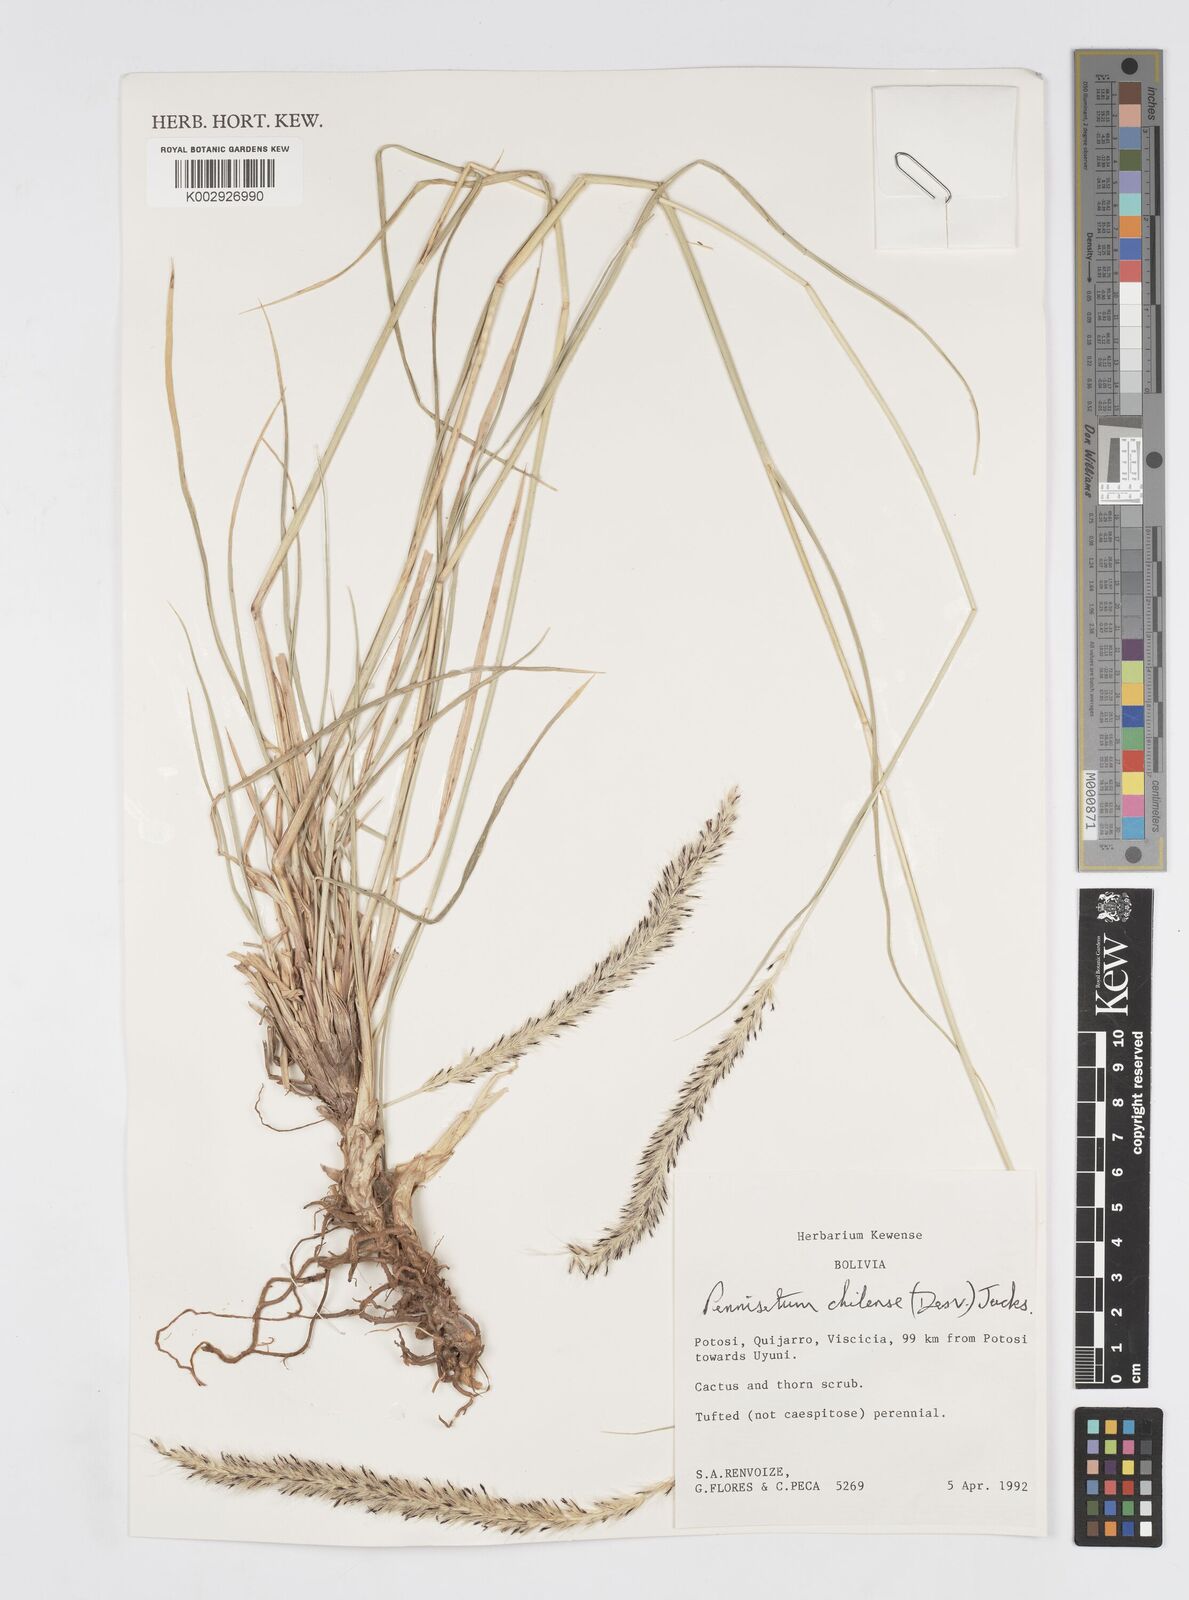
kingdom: Plantae
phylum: Tracheophyta
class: Liliopsida
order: Poales
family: Poaceae
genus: Cenchrus
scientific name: Cenchrus chilensis
